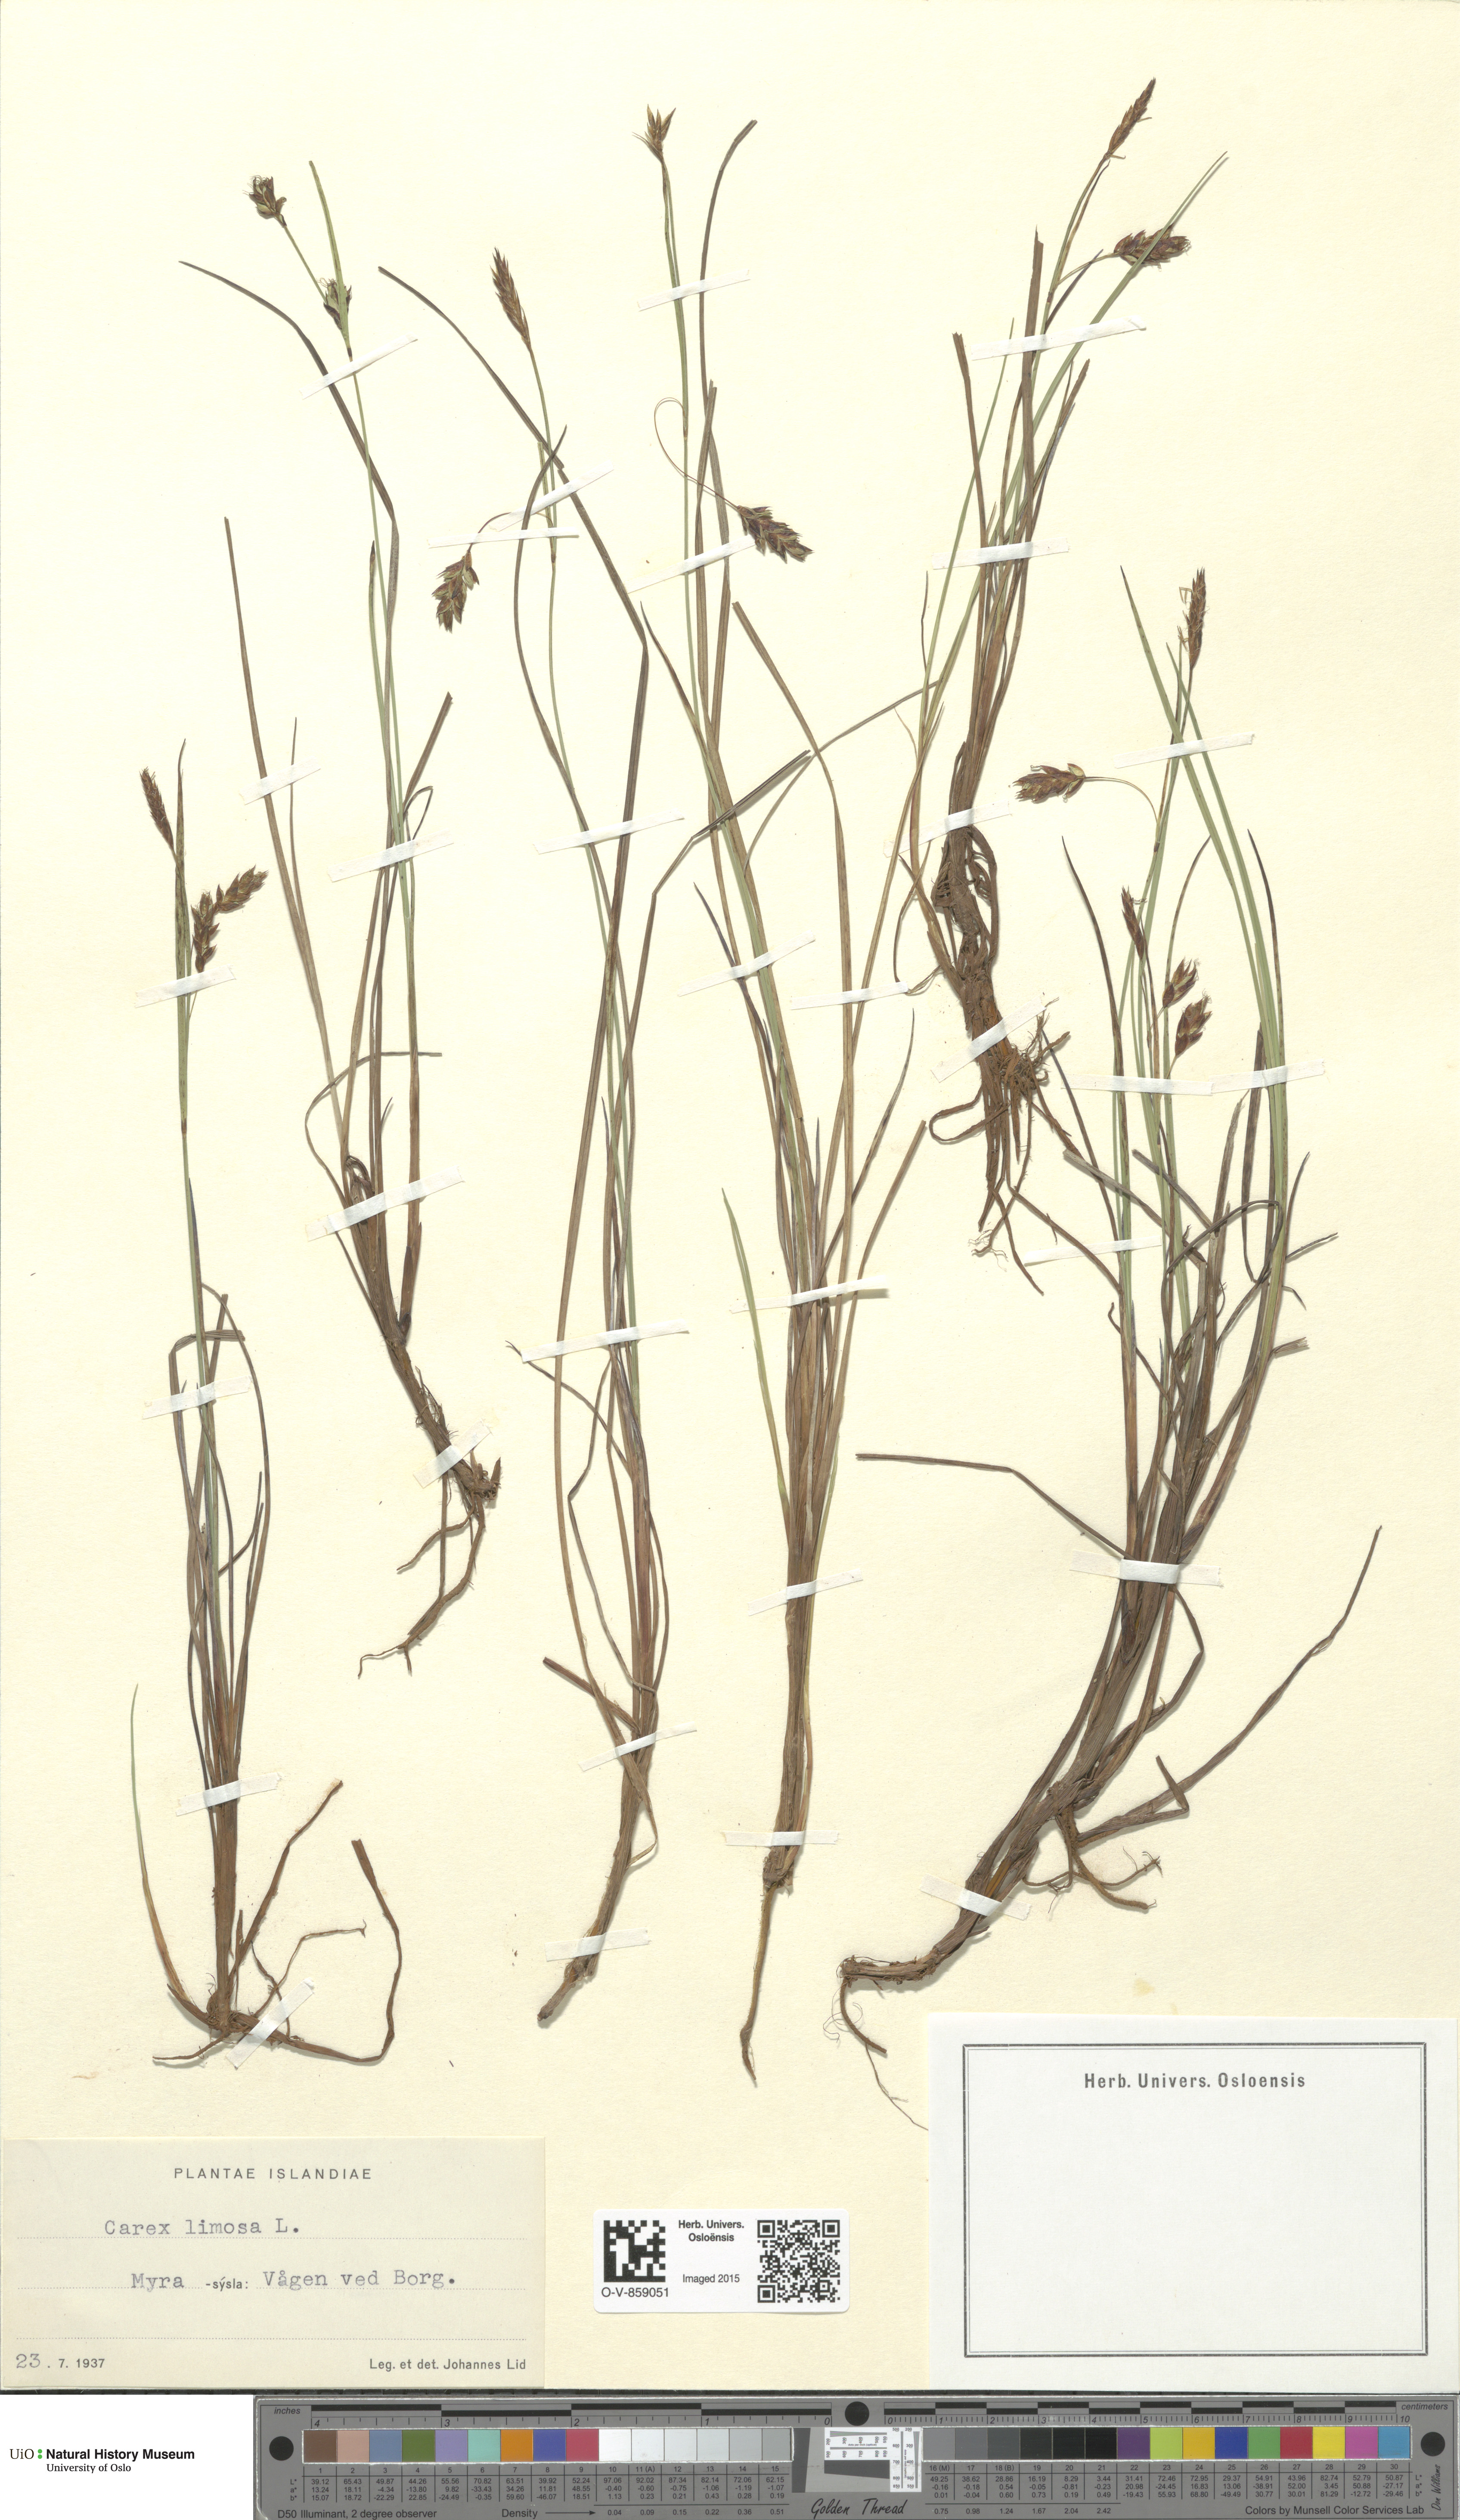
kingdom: Plantae
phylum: Tracheophyta
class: Liliopsida
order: Poales
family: Cyperaceae
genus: Carex
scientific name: Carex limosa
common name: Bog sedge
